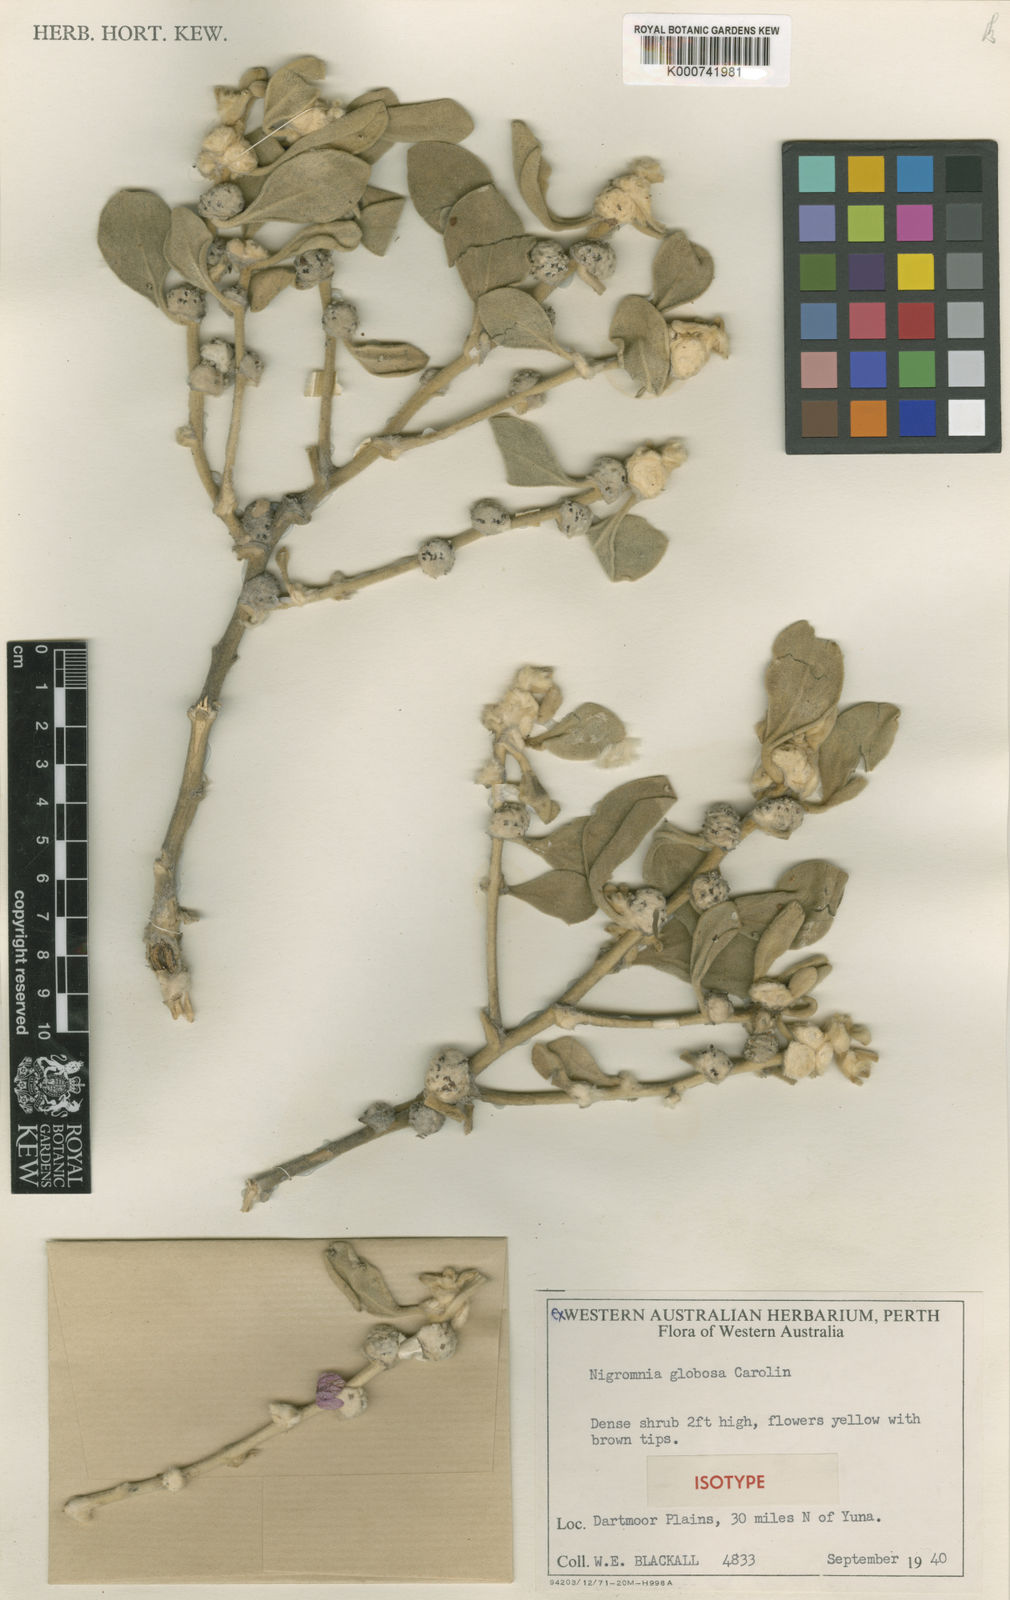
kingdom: Plantae
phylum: Tracheophyta
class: Magnoliopsida
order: Asterales
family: Goodeniaceae
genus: Scaevola
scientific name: Scaevola globosa
